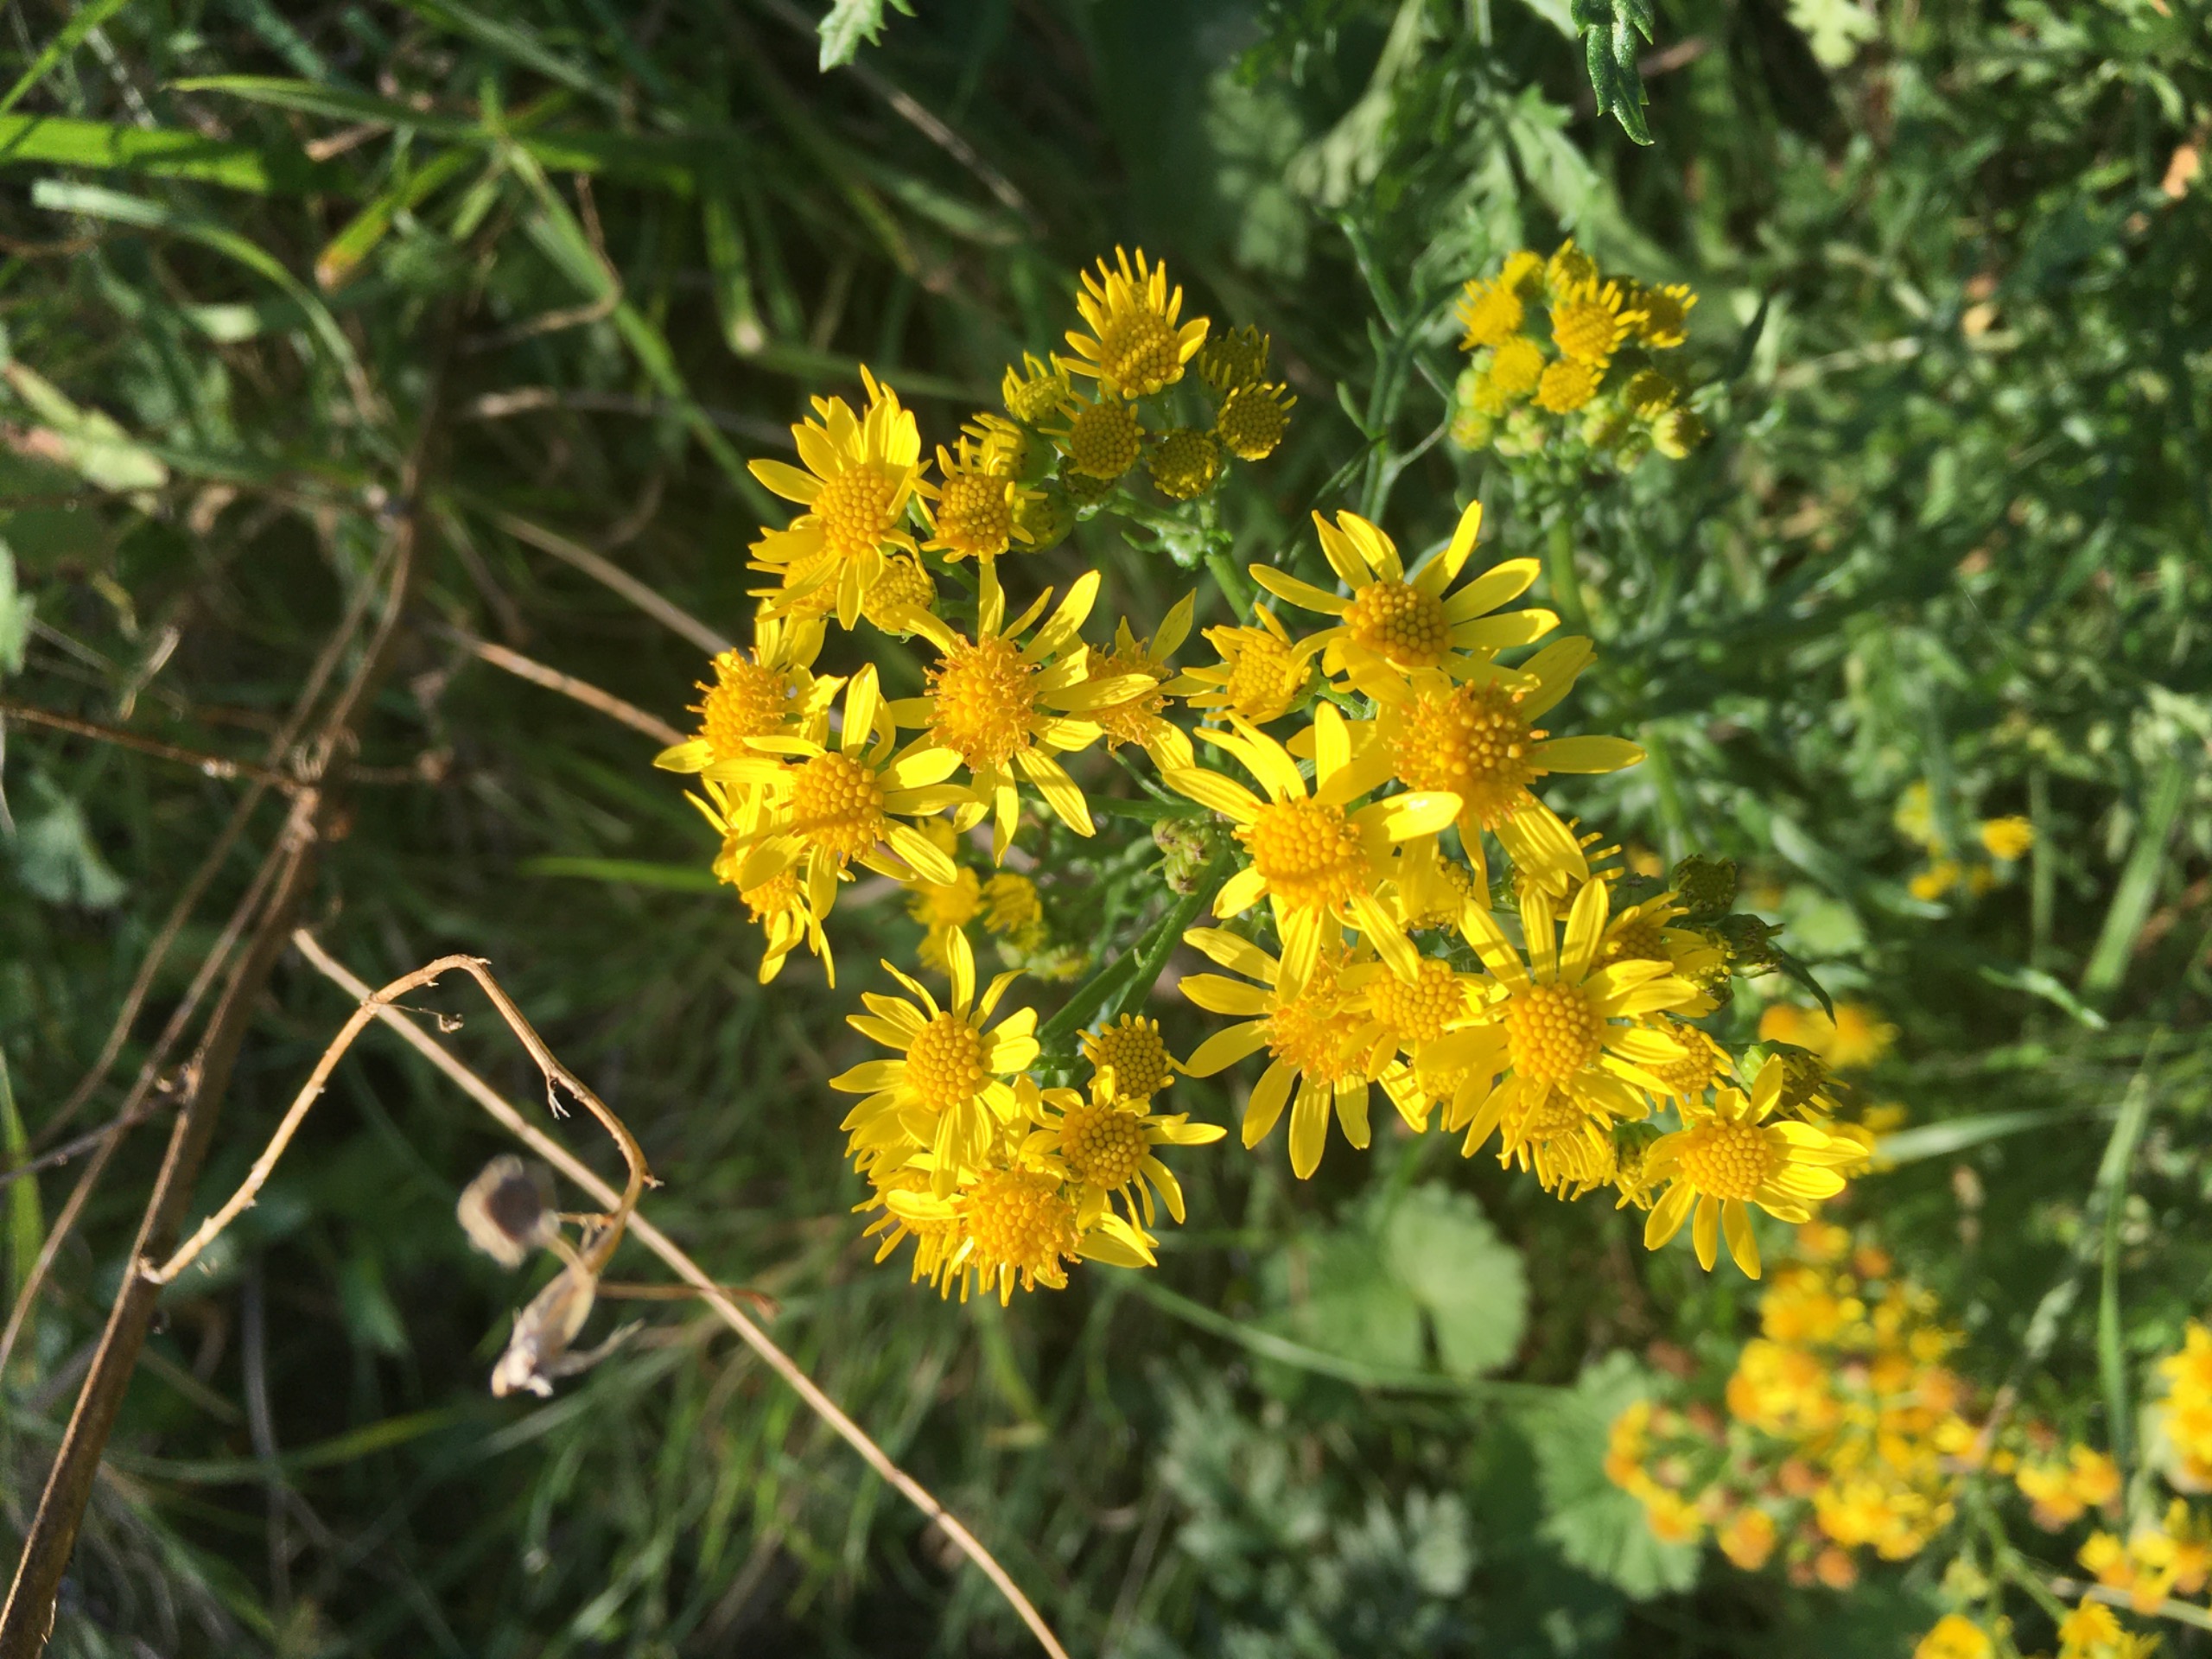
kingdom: Plantae
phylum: Tracheophyta
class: Magnoliopsida
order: Asterales
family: Asteraceae
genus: Jacobaea
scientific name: Jacobaea vulgaris
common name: Eng-brandbæger
